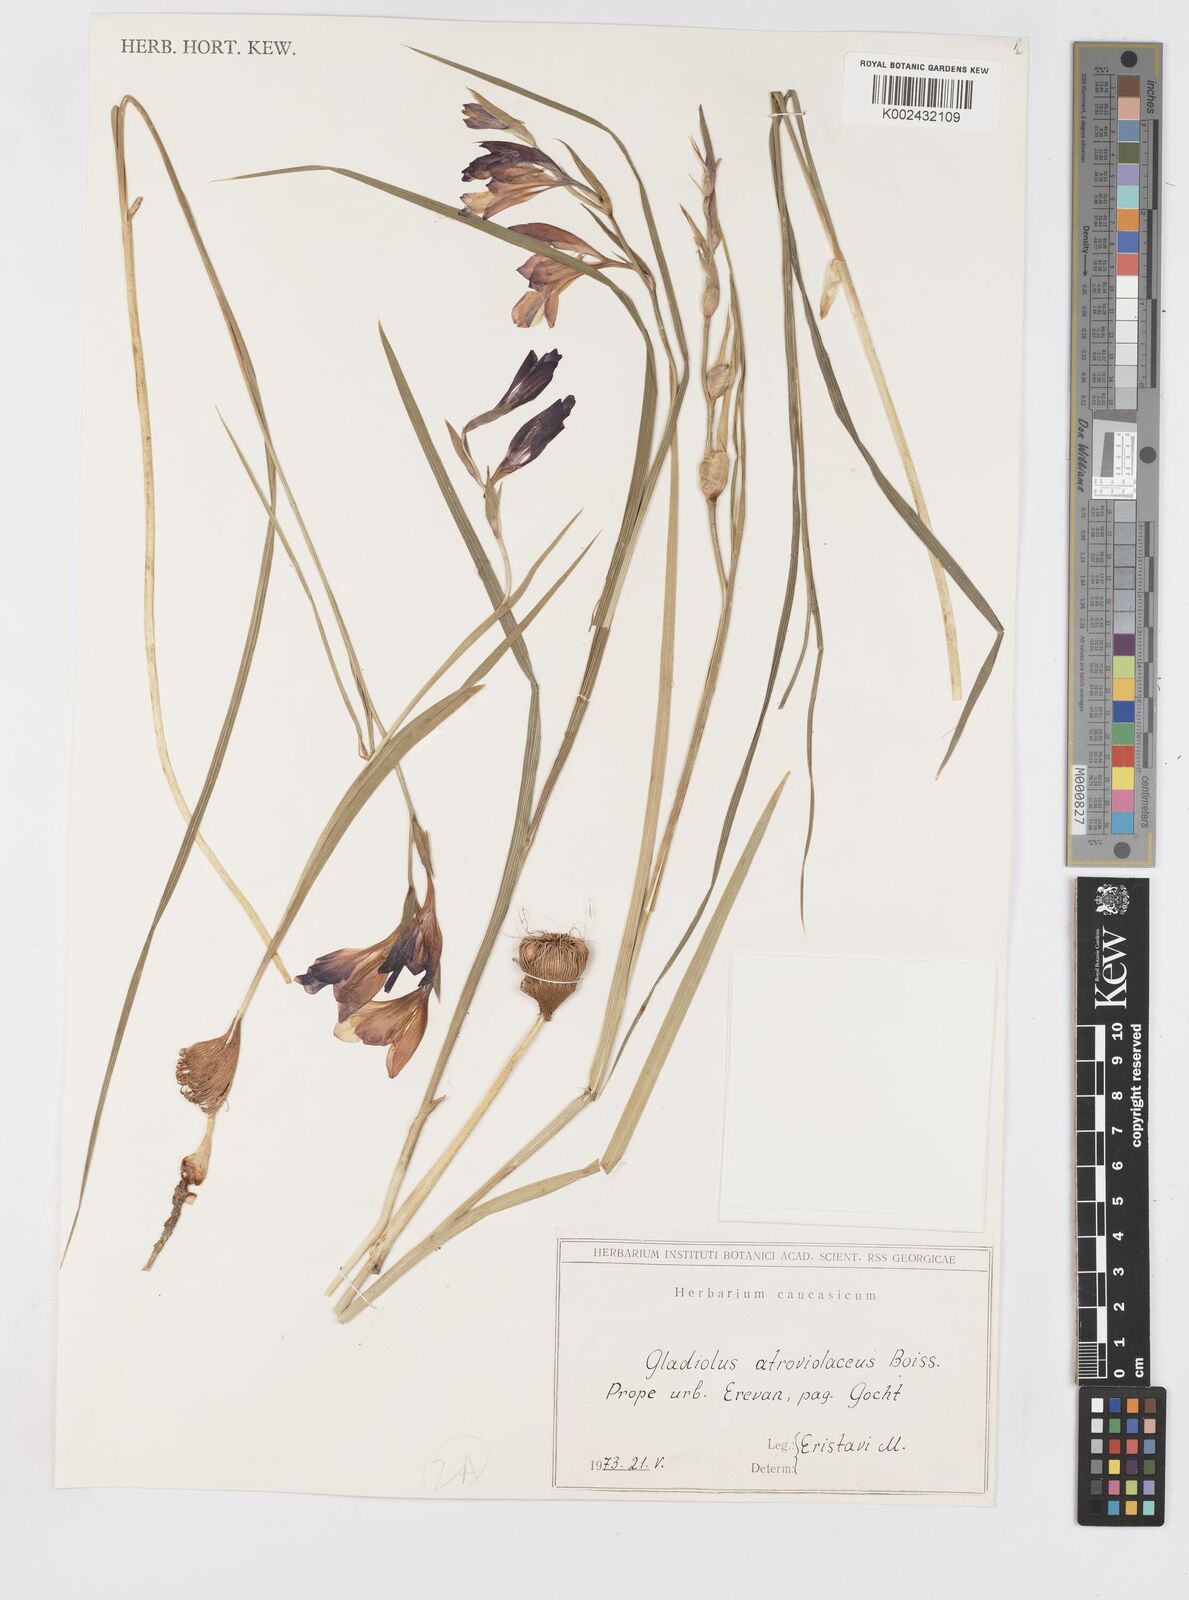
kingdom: Plantae
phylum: Tracheophyta
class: Liliopsida
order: Asparagales
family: Iridaceae
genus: Gladiolus
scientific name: Gladiolus atroviolaceus
